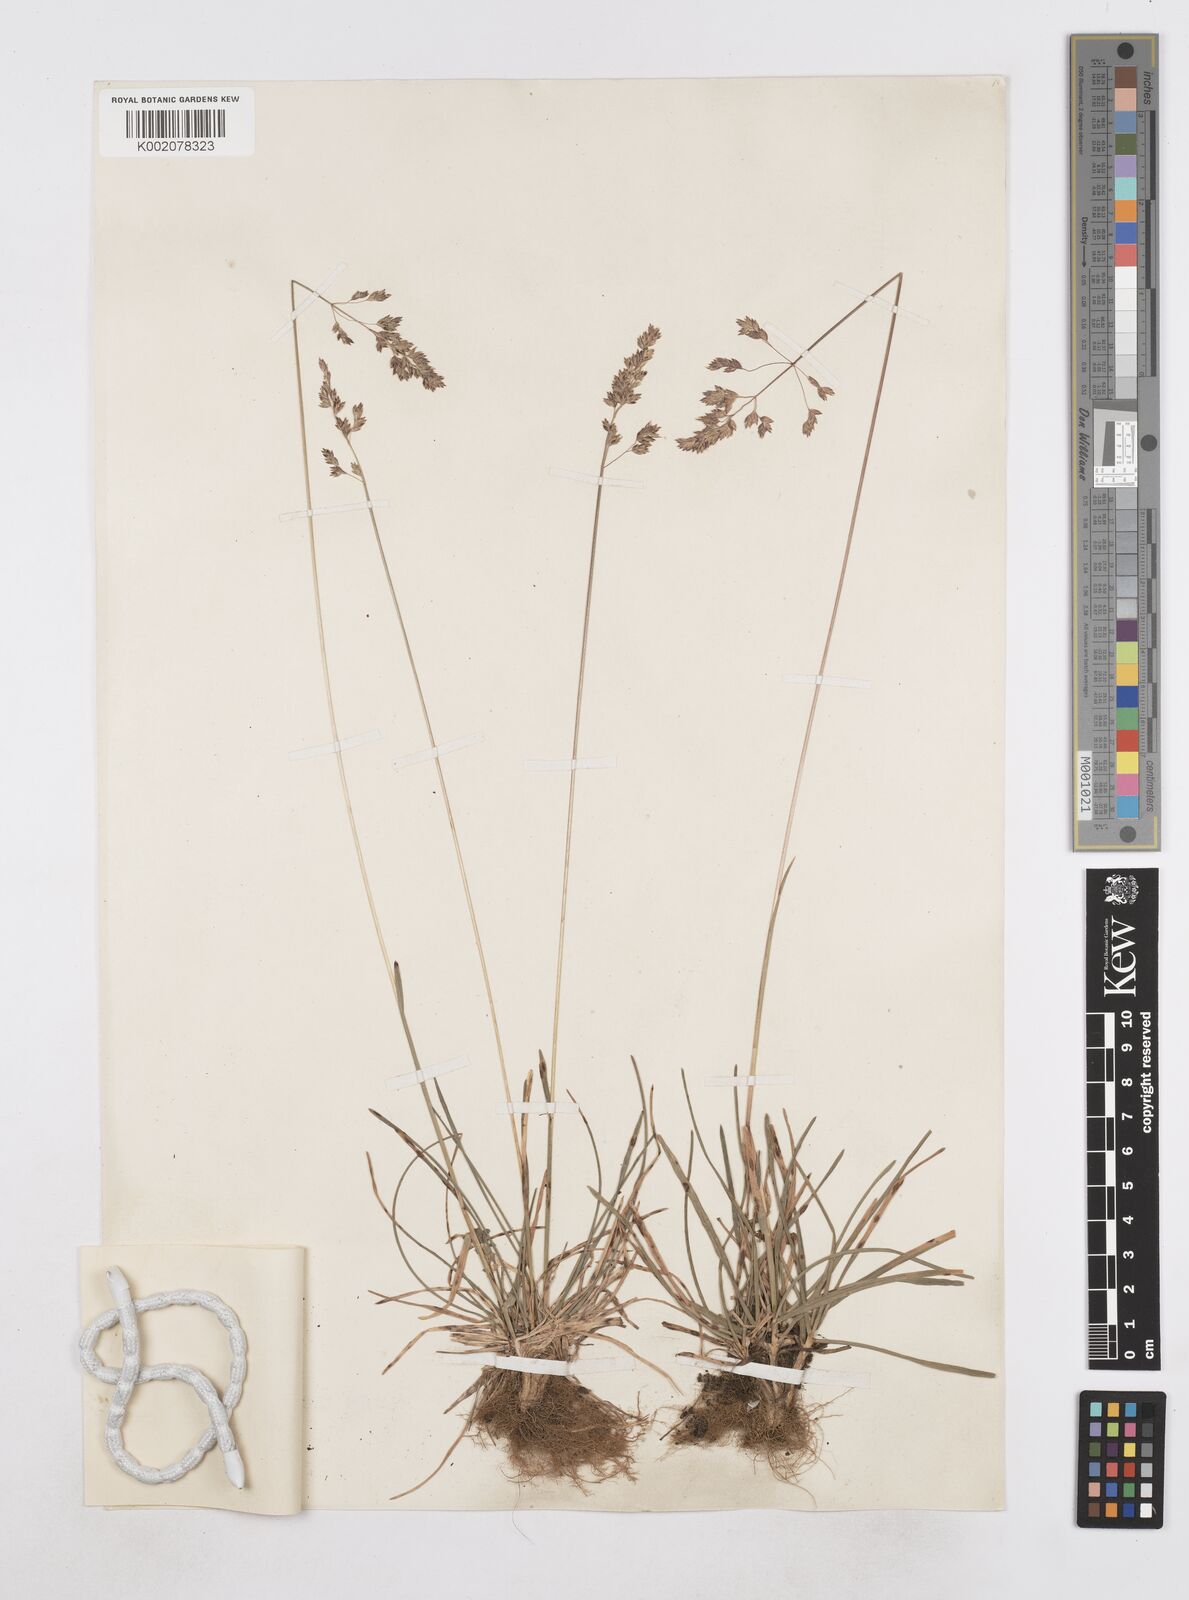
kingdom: Plantae
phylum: Tracheophyta
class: Liliopsida
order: Poales
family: Poaceae
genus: Poa
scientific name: Poa pratensis
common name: Kentucky bluegrass
